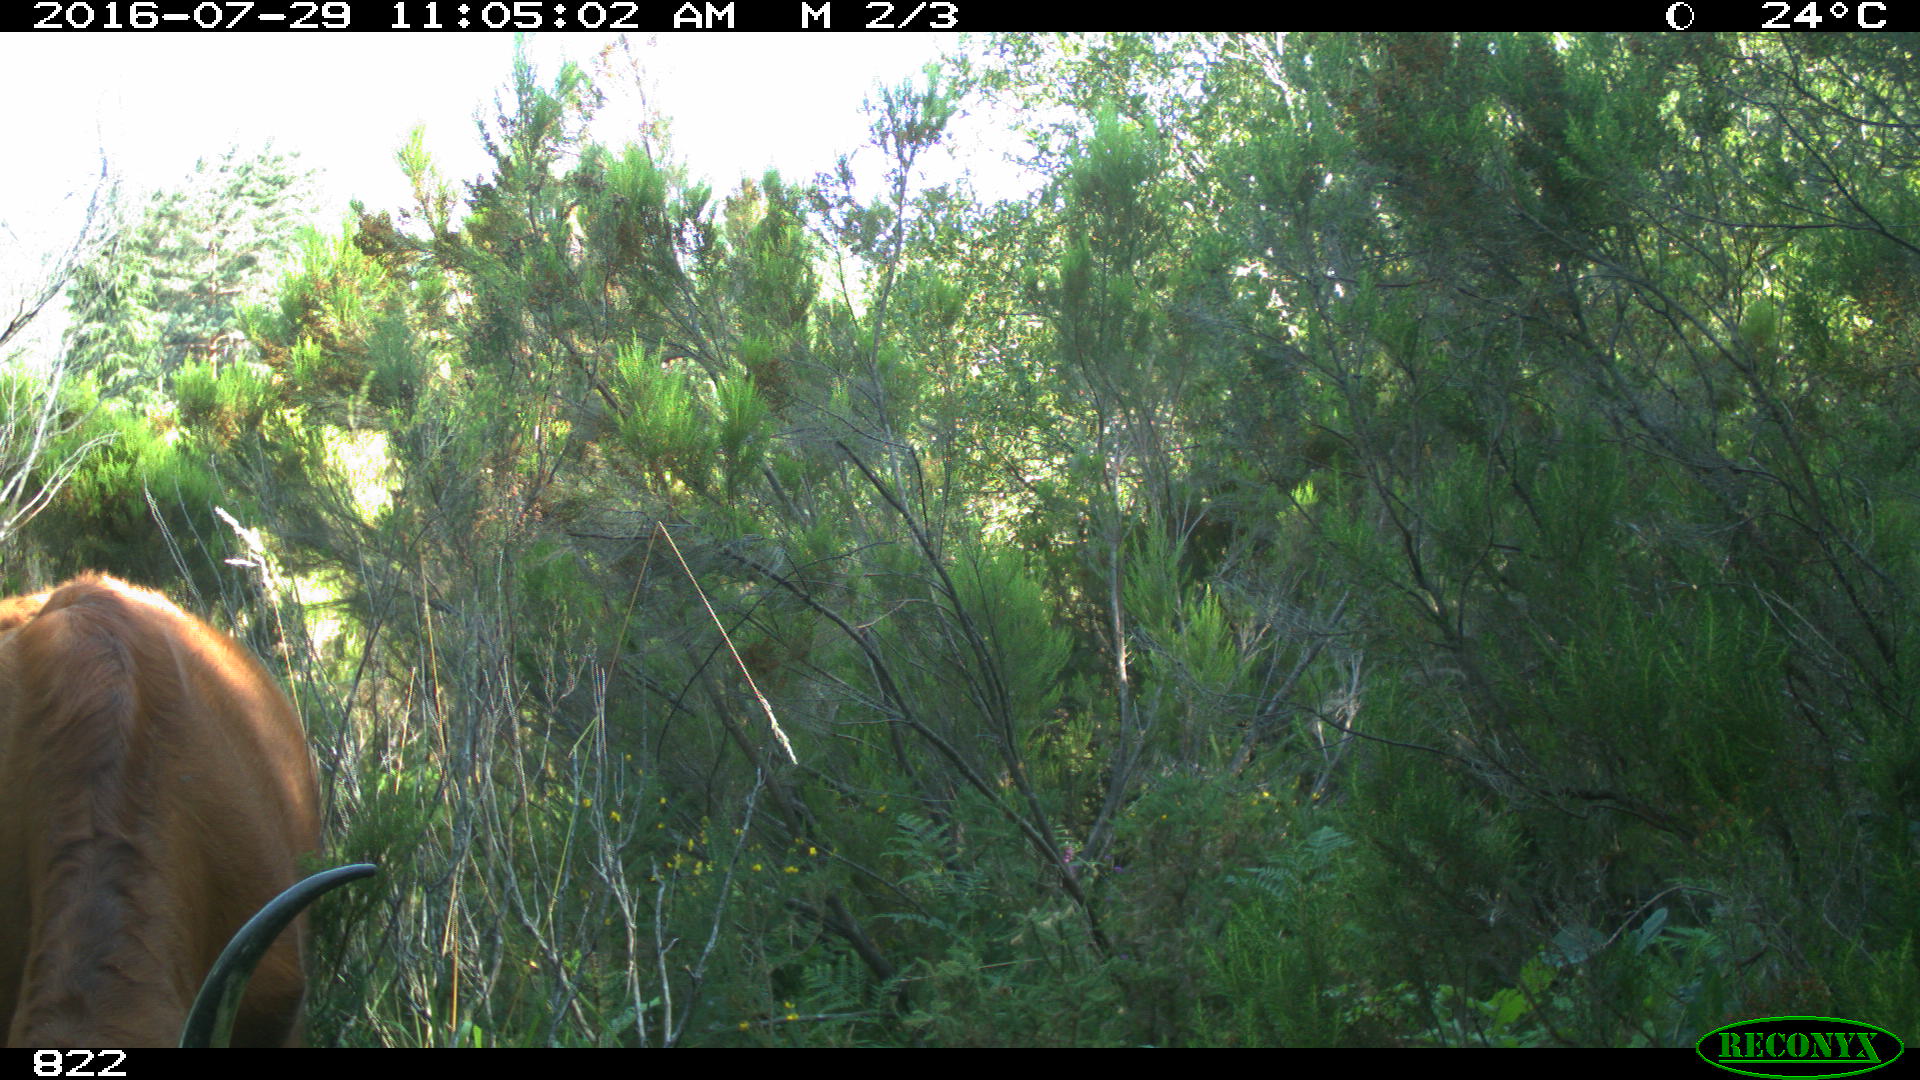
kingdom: Animalia
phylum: Chordata
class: Mammalia
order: Artiodactyla
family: Bovidae
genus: Bos
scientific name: Bos taurus
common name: Domesticated cattle
